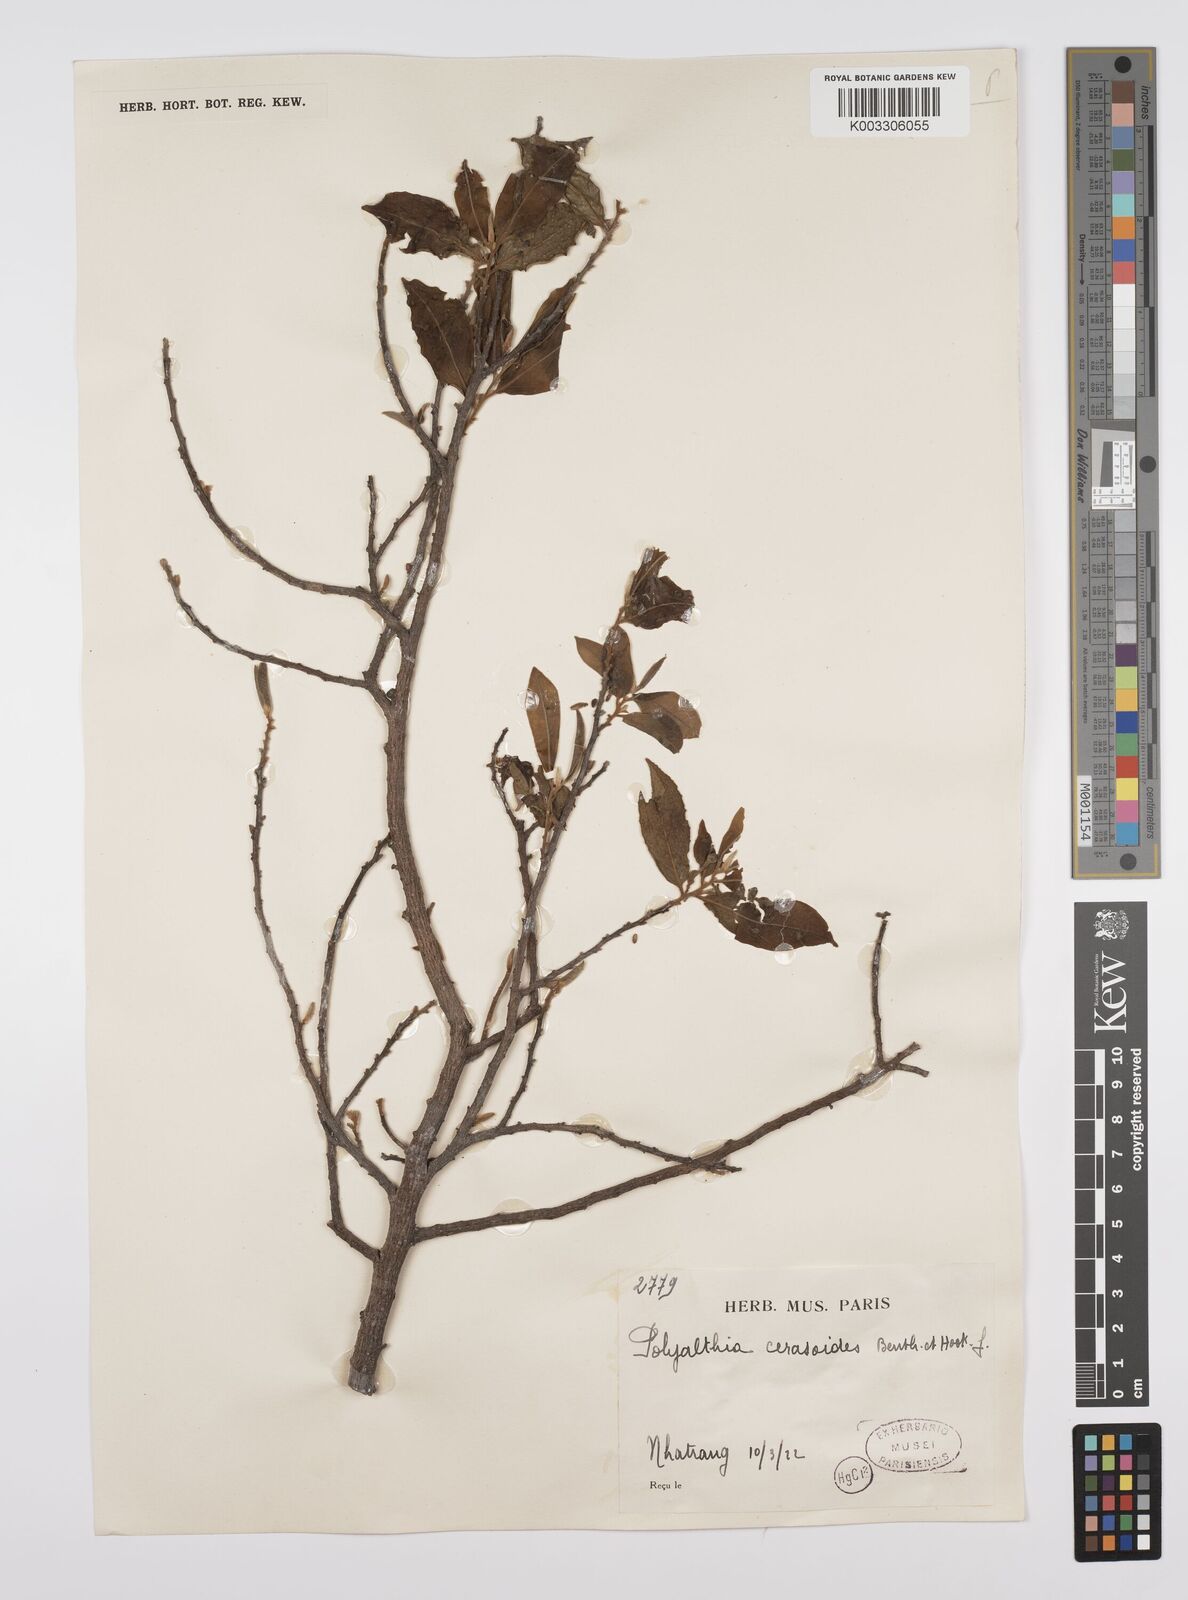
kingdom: Plantae
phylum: Tracheophyta
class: Magnoliopsida
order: Magnoliales
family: Annonaceae
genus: Hubera
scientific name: Hubera cerasoides
